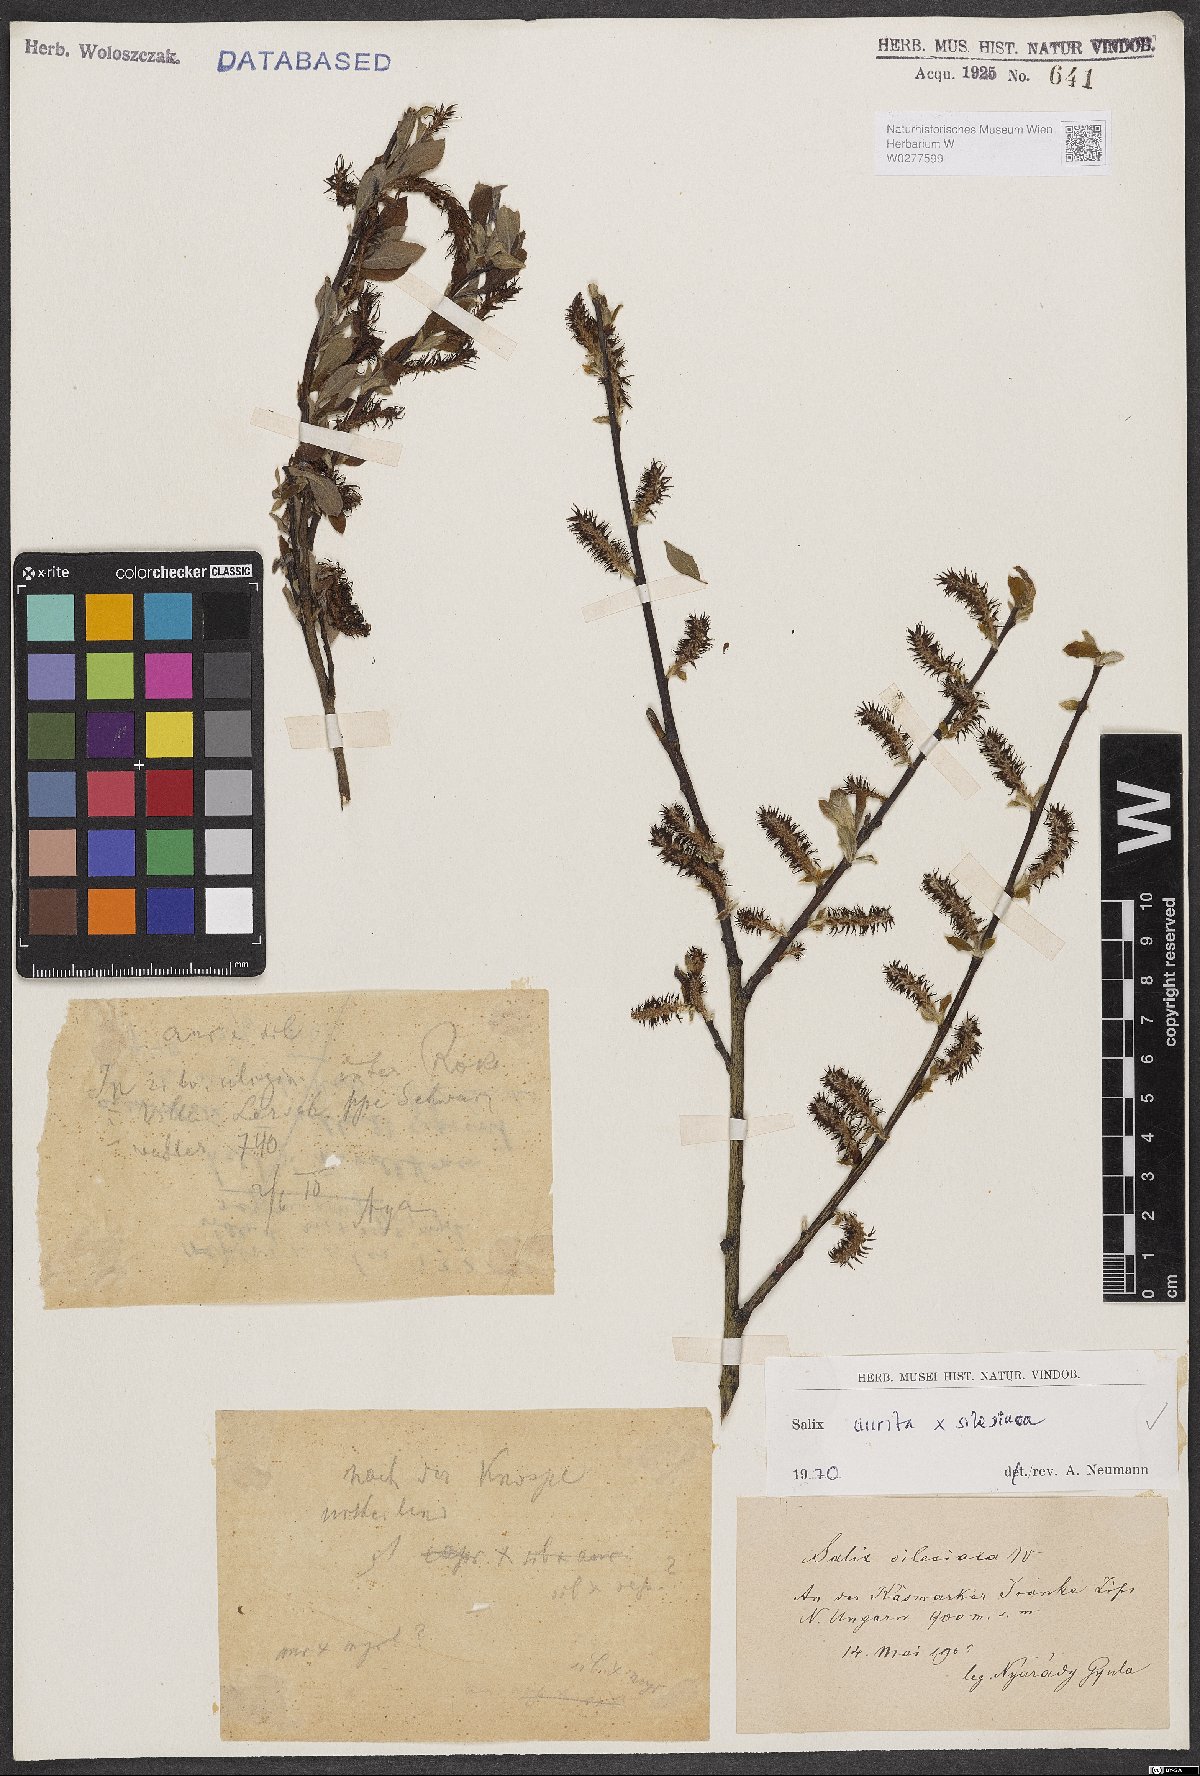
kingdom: Plantae
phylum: Tracheophyta
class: Magnoliopsida
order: Malpighiales
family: Salicaceae
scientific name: Salicaceae
